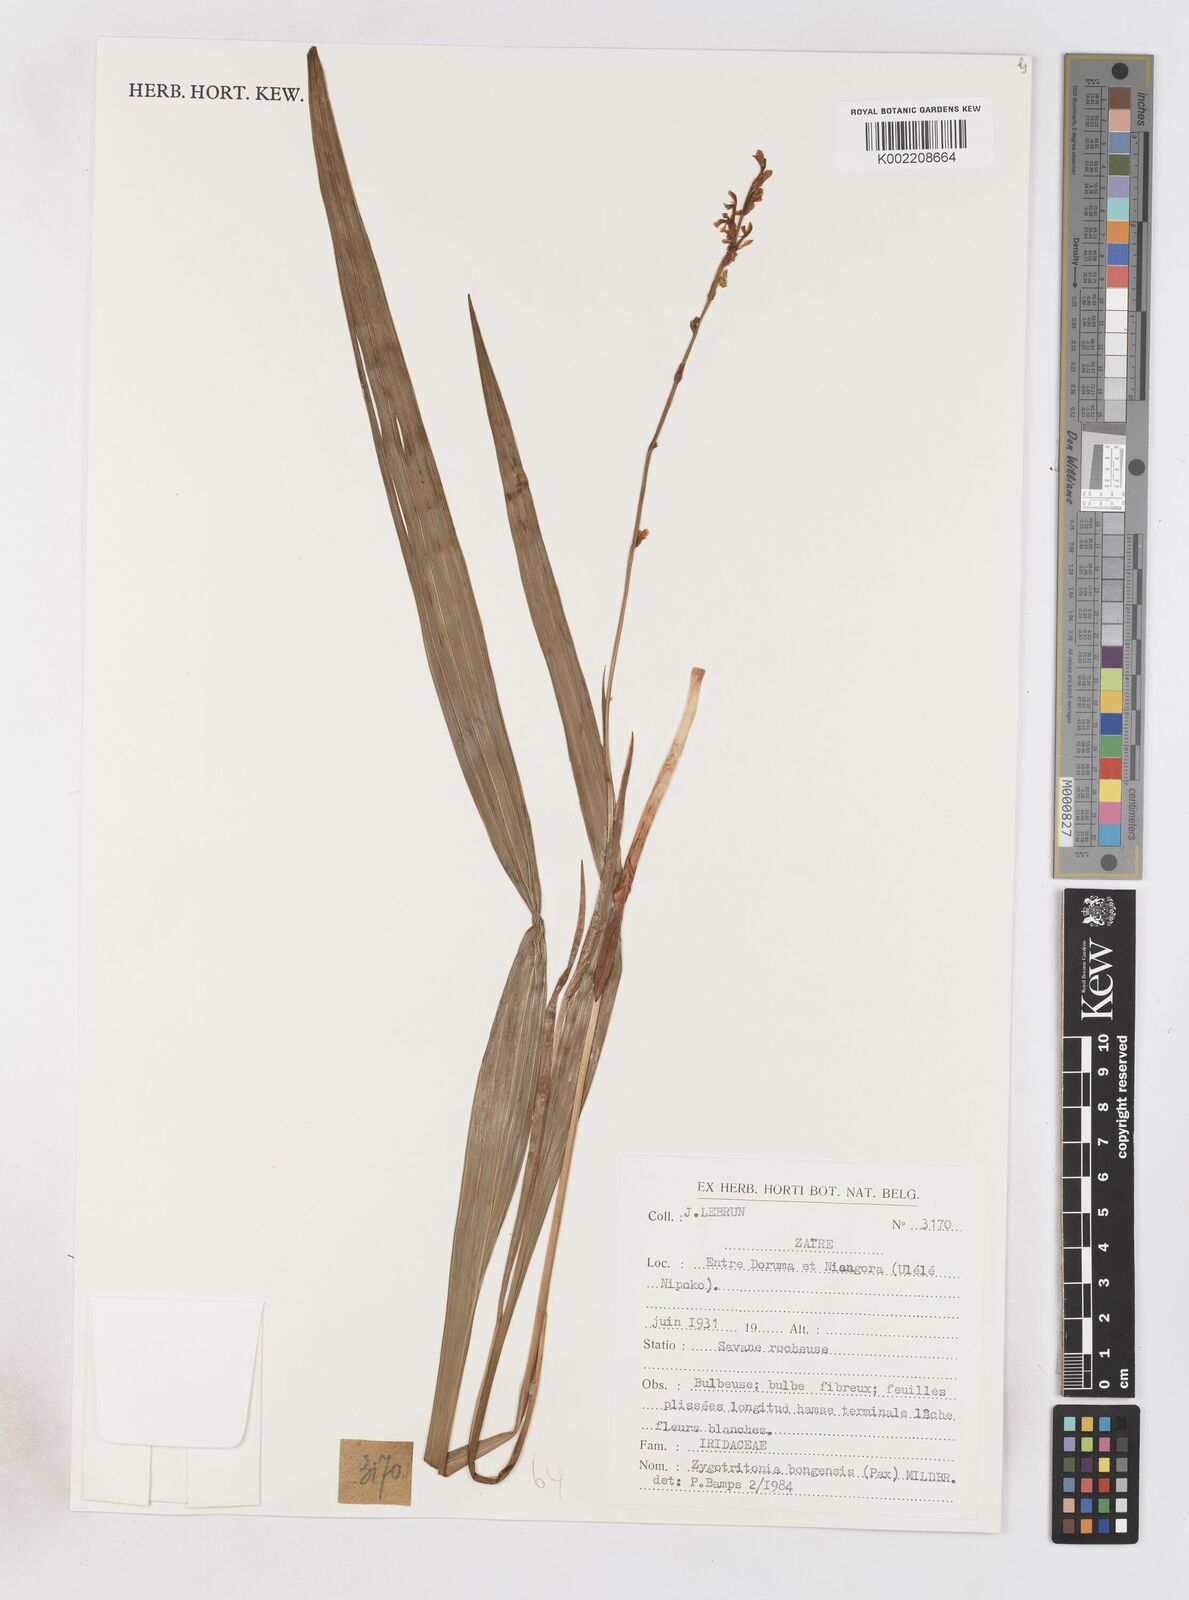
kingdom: Plantae
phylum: Tracheophyta
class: Liliopsida
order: Asparagales
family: Iridaceae
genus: Zygotritonia
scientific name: Zygotritonia bongensis
